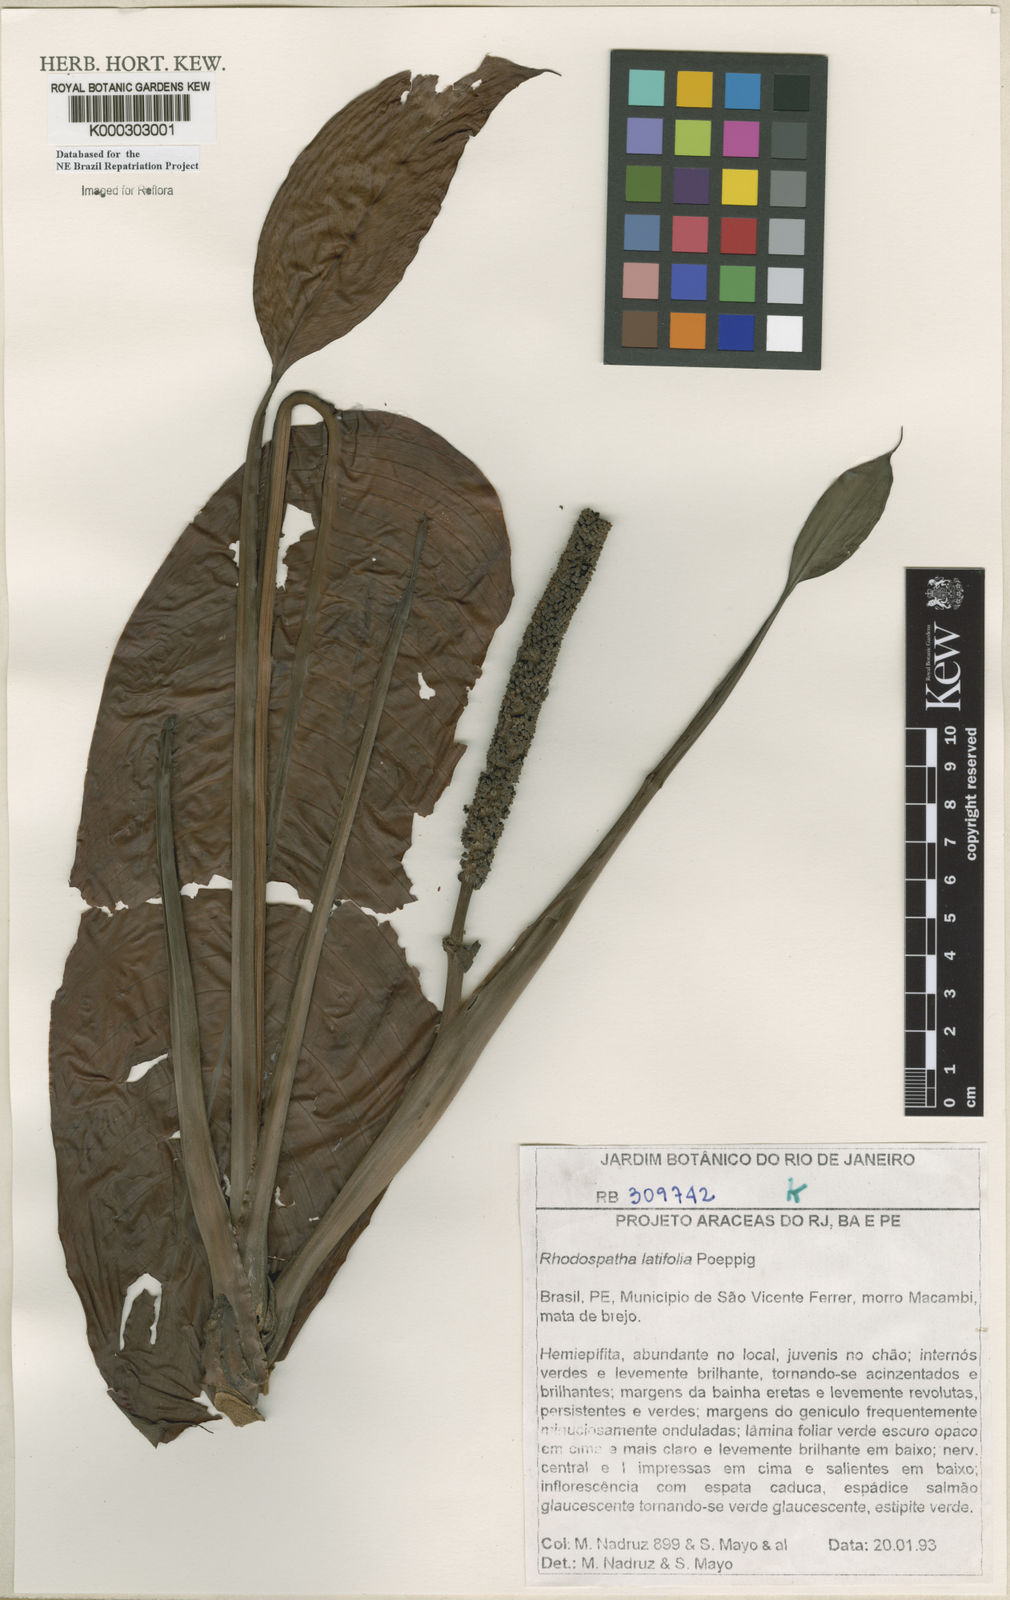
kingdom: Plantae
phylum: Tracheophyta
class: Liliopsida
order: Alismatales
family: Araceae
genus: Rhodospatha
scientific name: Rhodospatha latifolia
